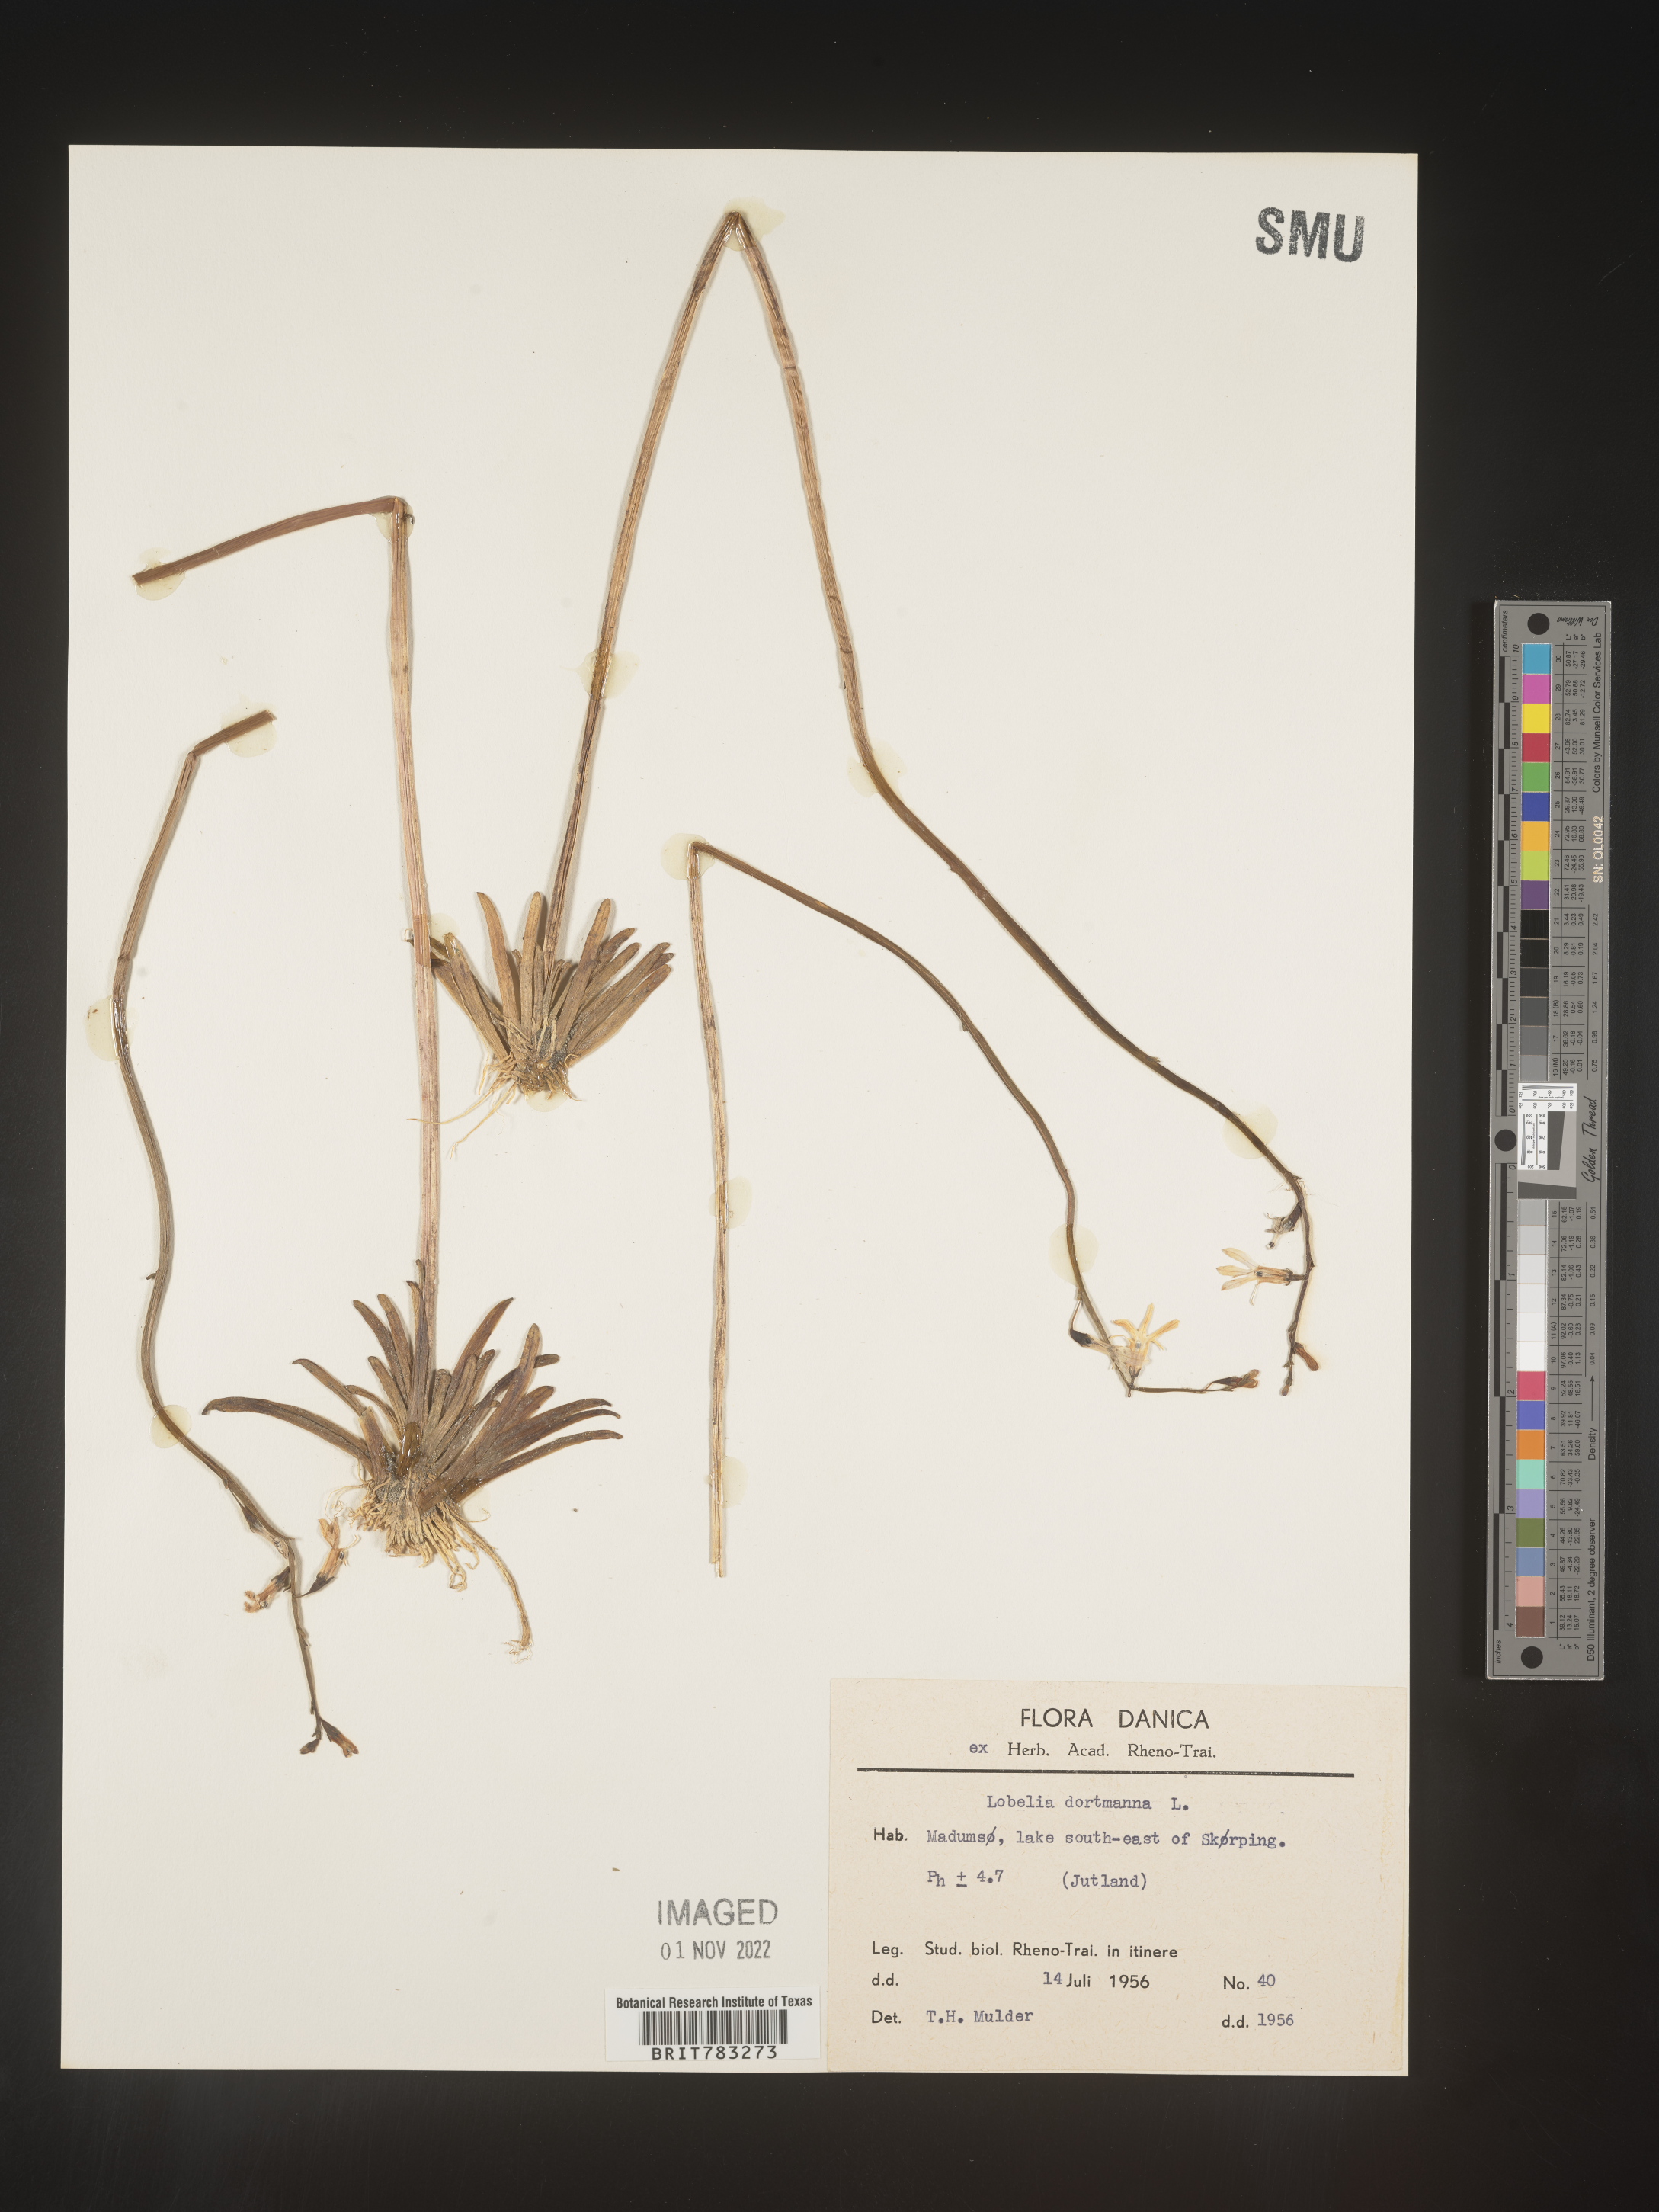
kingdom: Plantae
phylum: Tracheophyta
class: Magnoliopsida
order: Asterales
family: Campanulaceae
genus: Lobelia
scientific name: Lobelia
